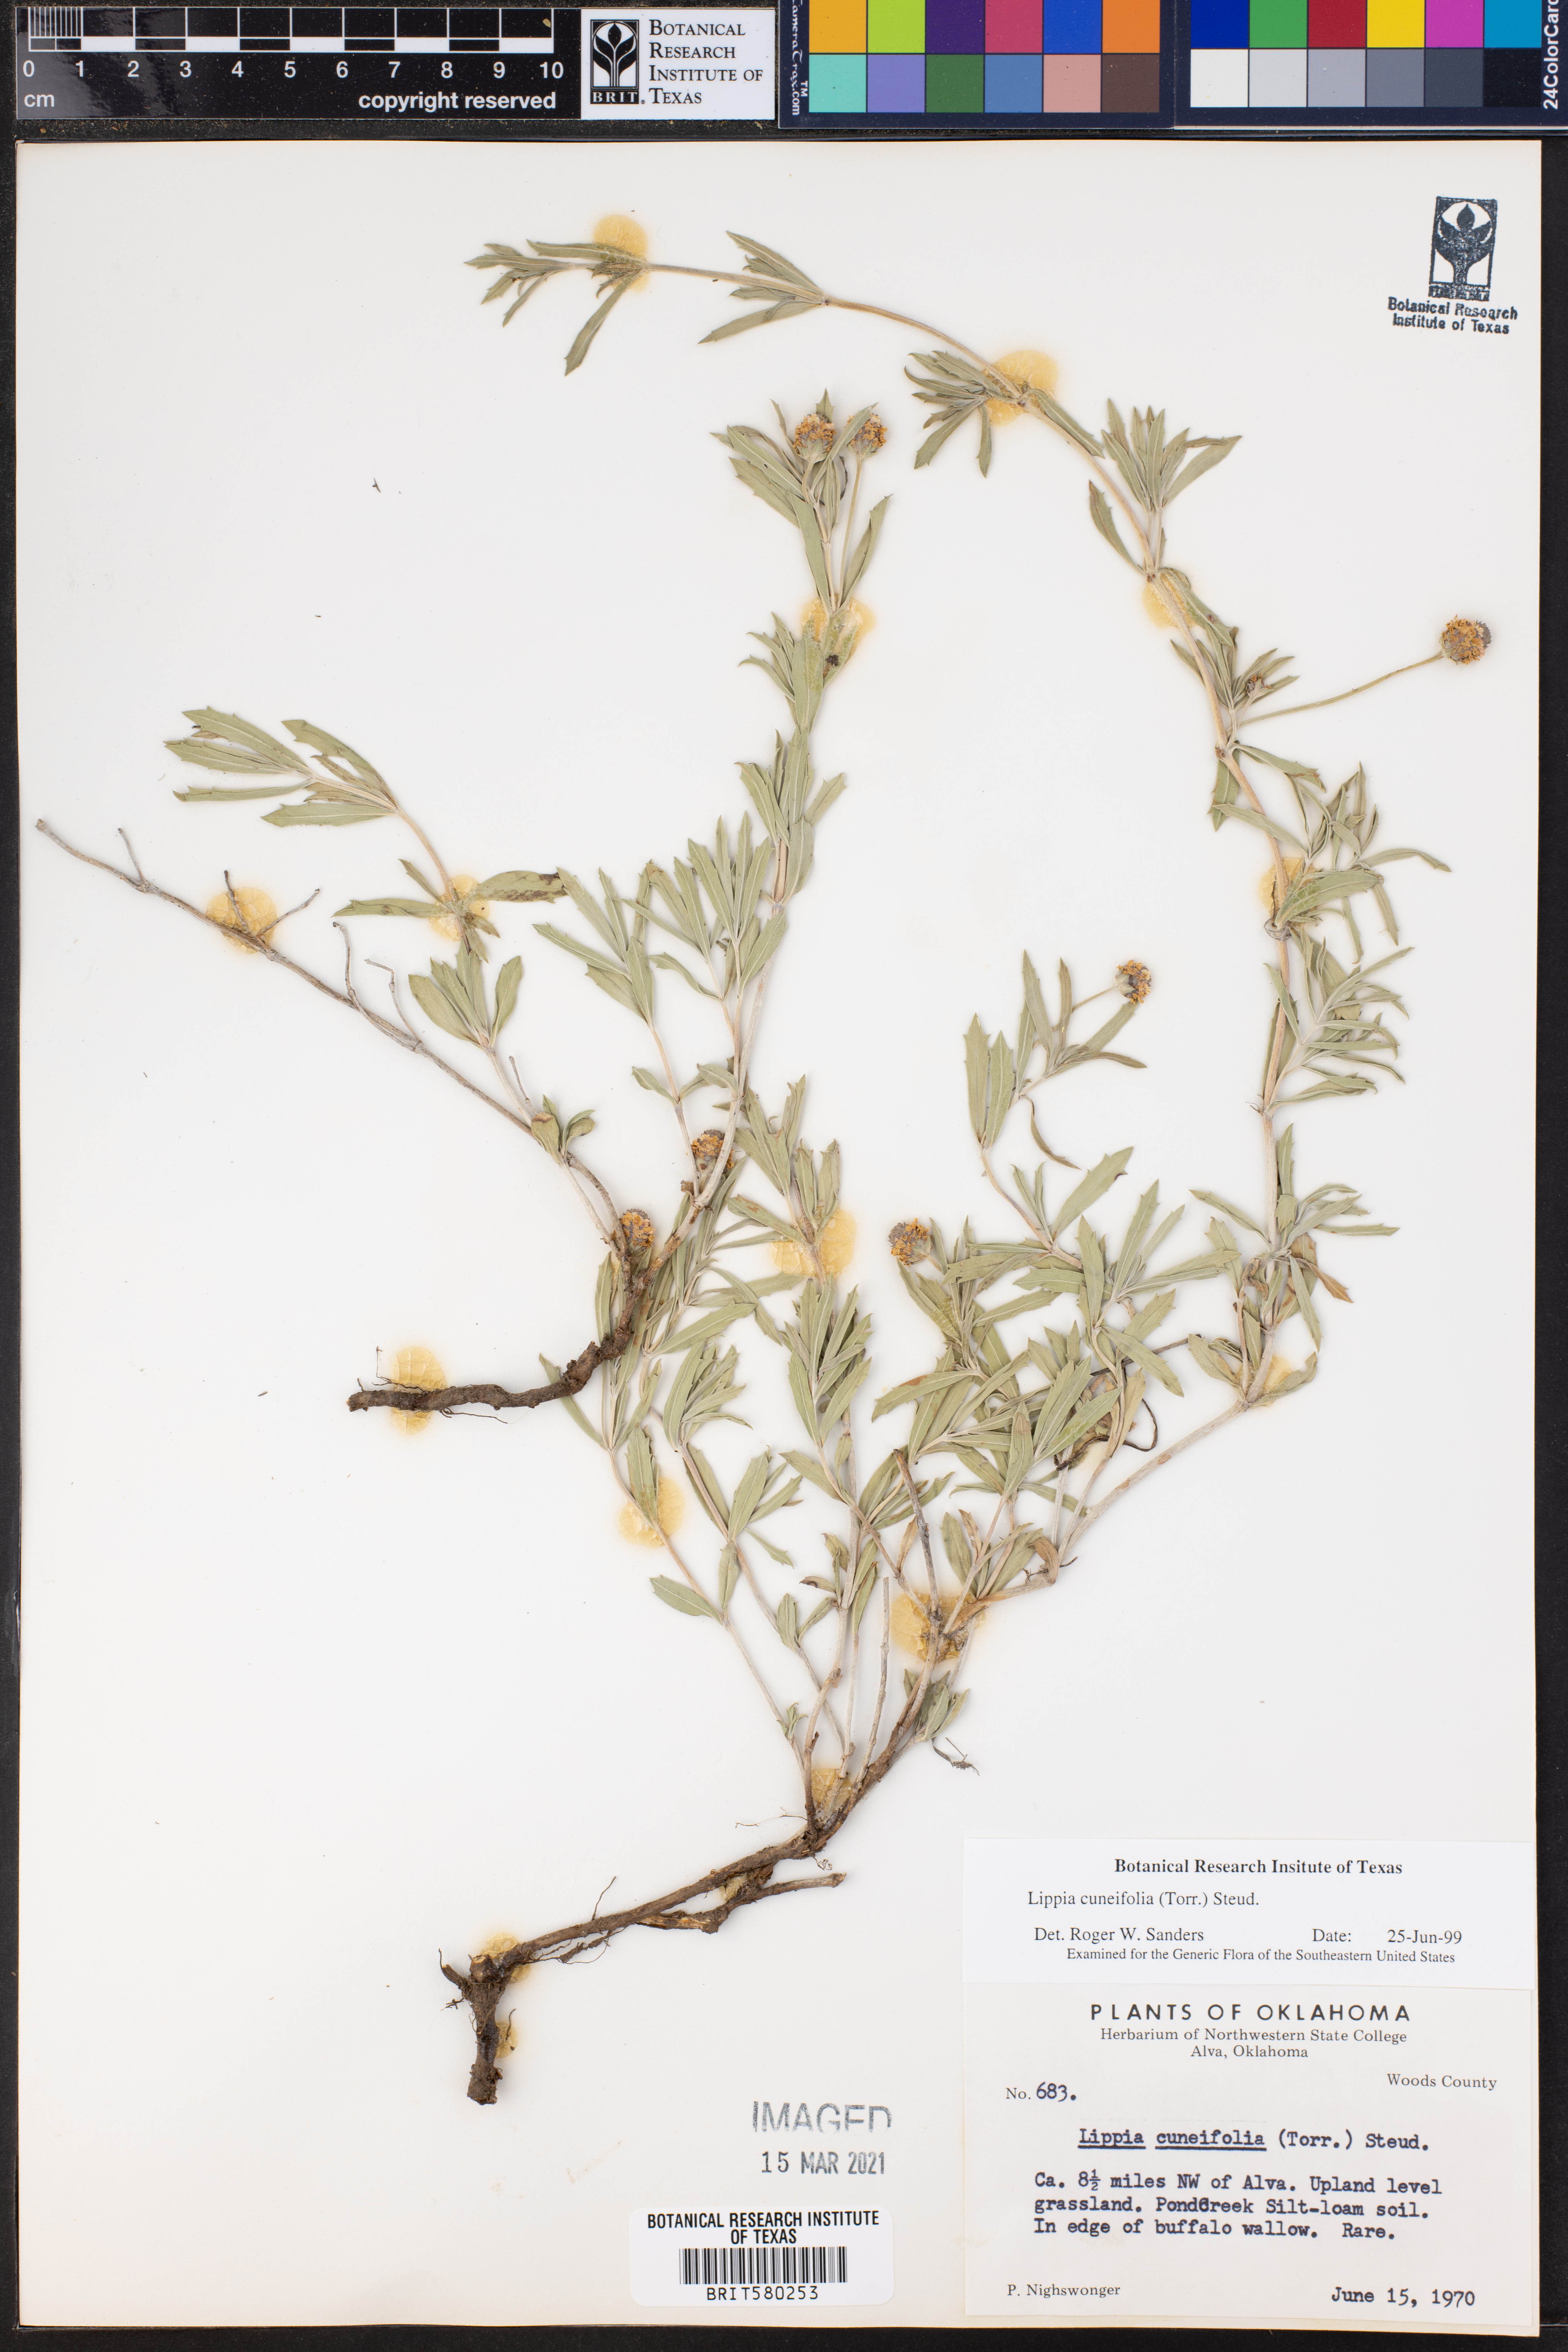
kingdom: Plantae
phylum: Tracheophyta
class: Magnoliopsida
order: Lamiales
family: Verbenaceae
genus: Phyla
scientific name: Phyla cuneifolia
